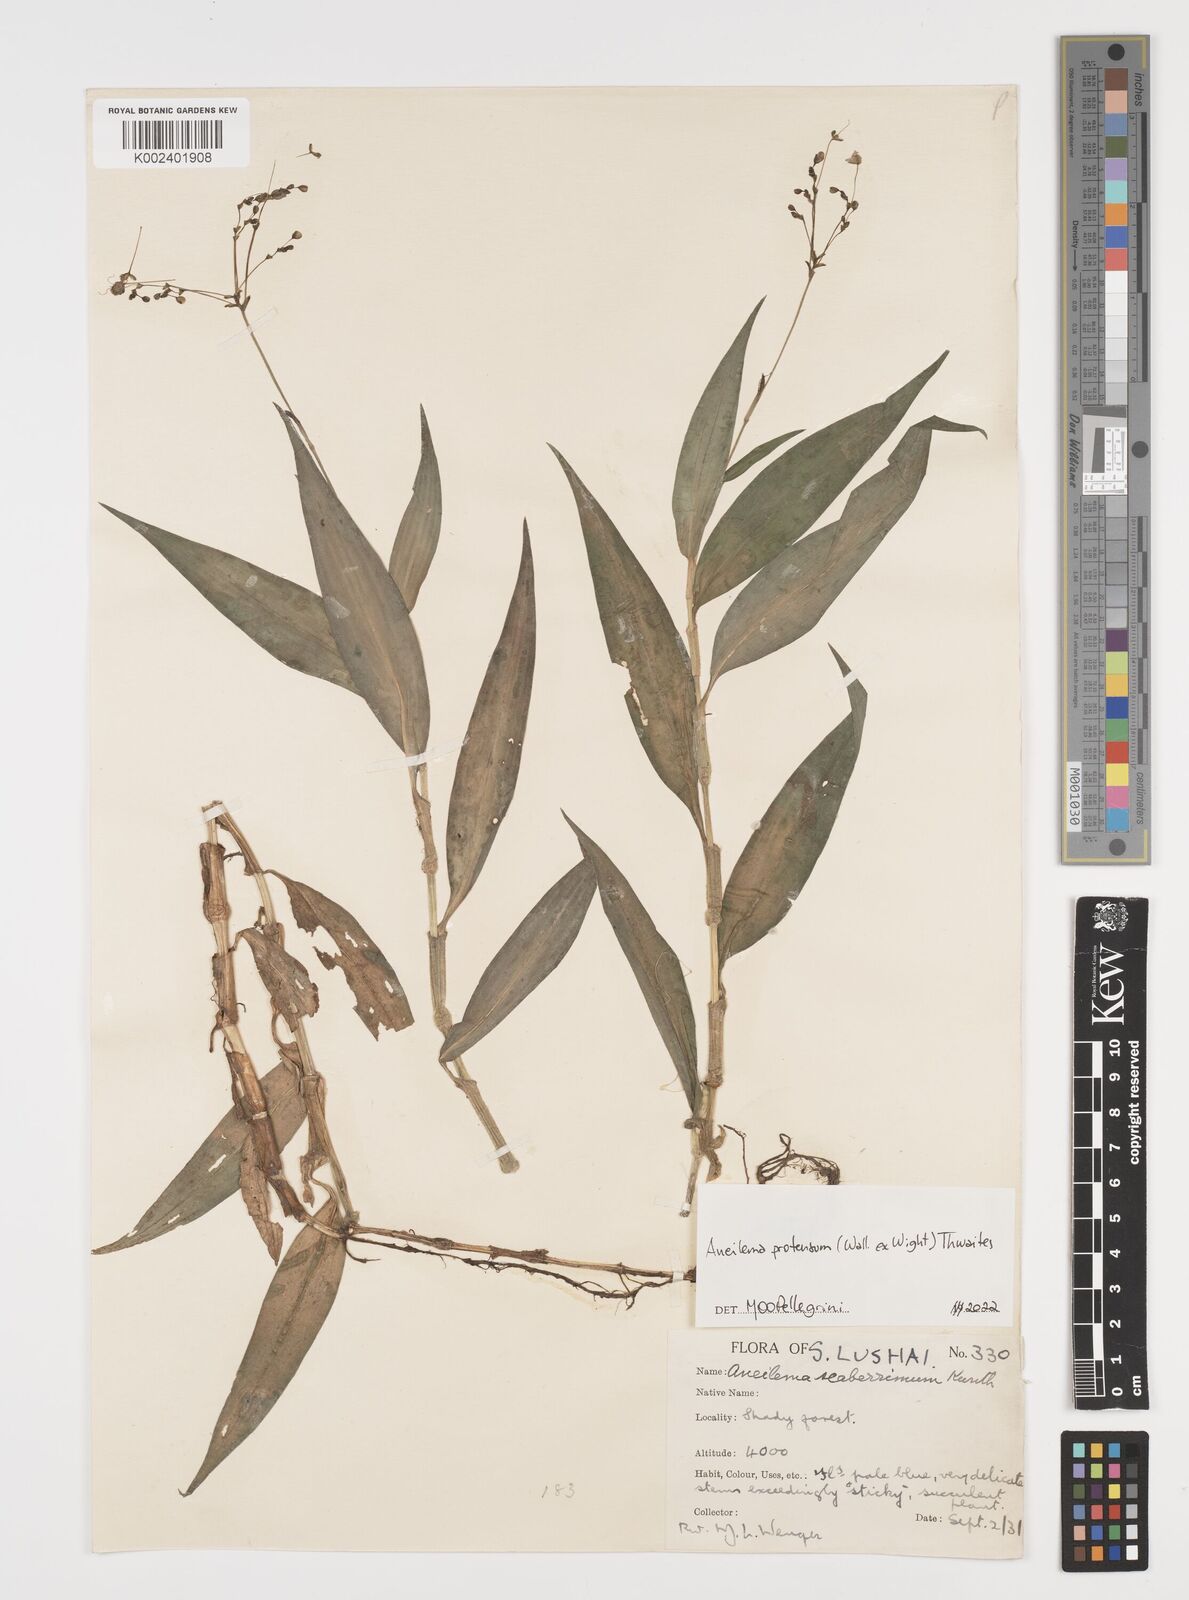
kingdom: Plantae
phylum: Tracheophyta
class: Liliopsida
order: Commelinales
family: Commelinaceae
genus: Rhopalephora
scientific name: Rhopalephora
